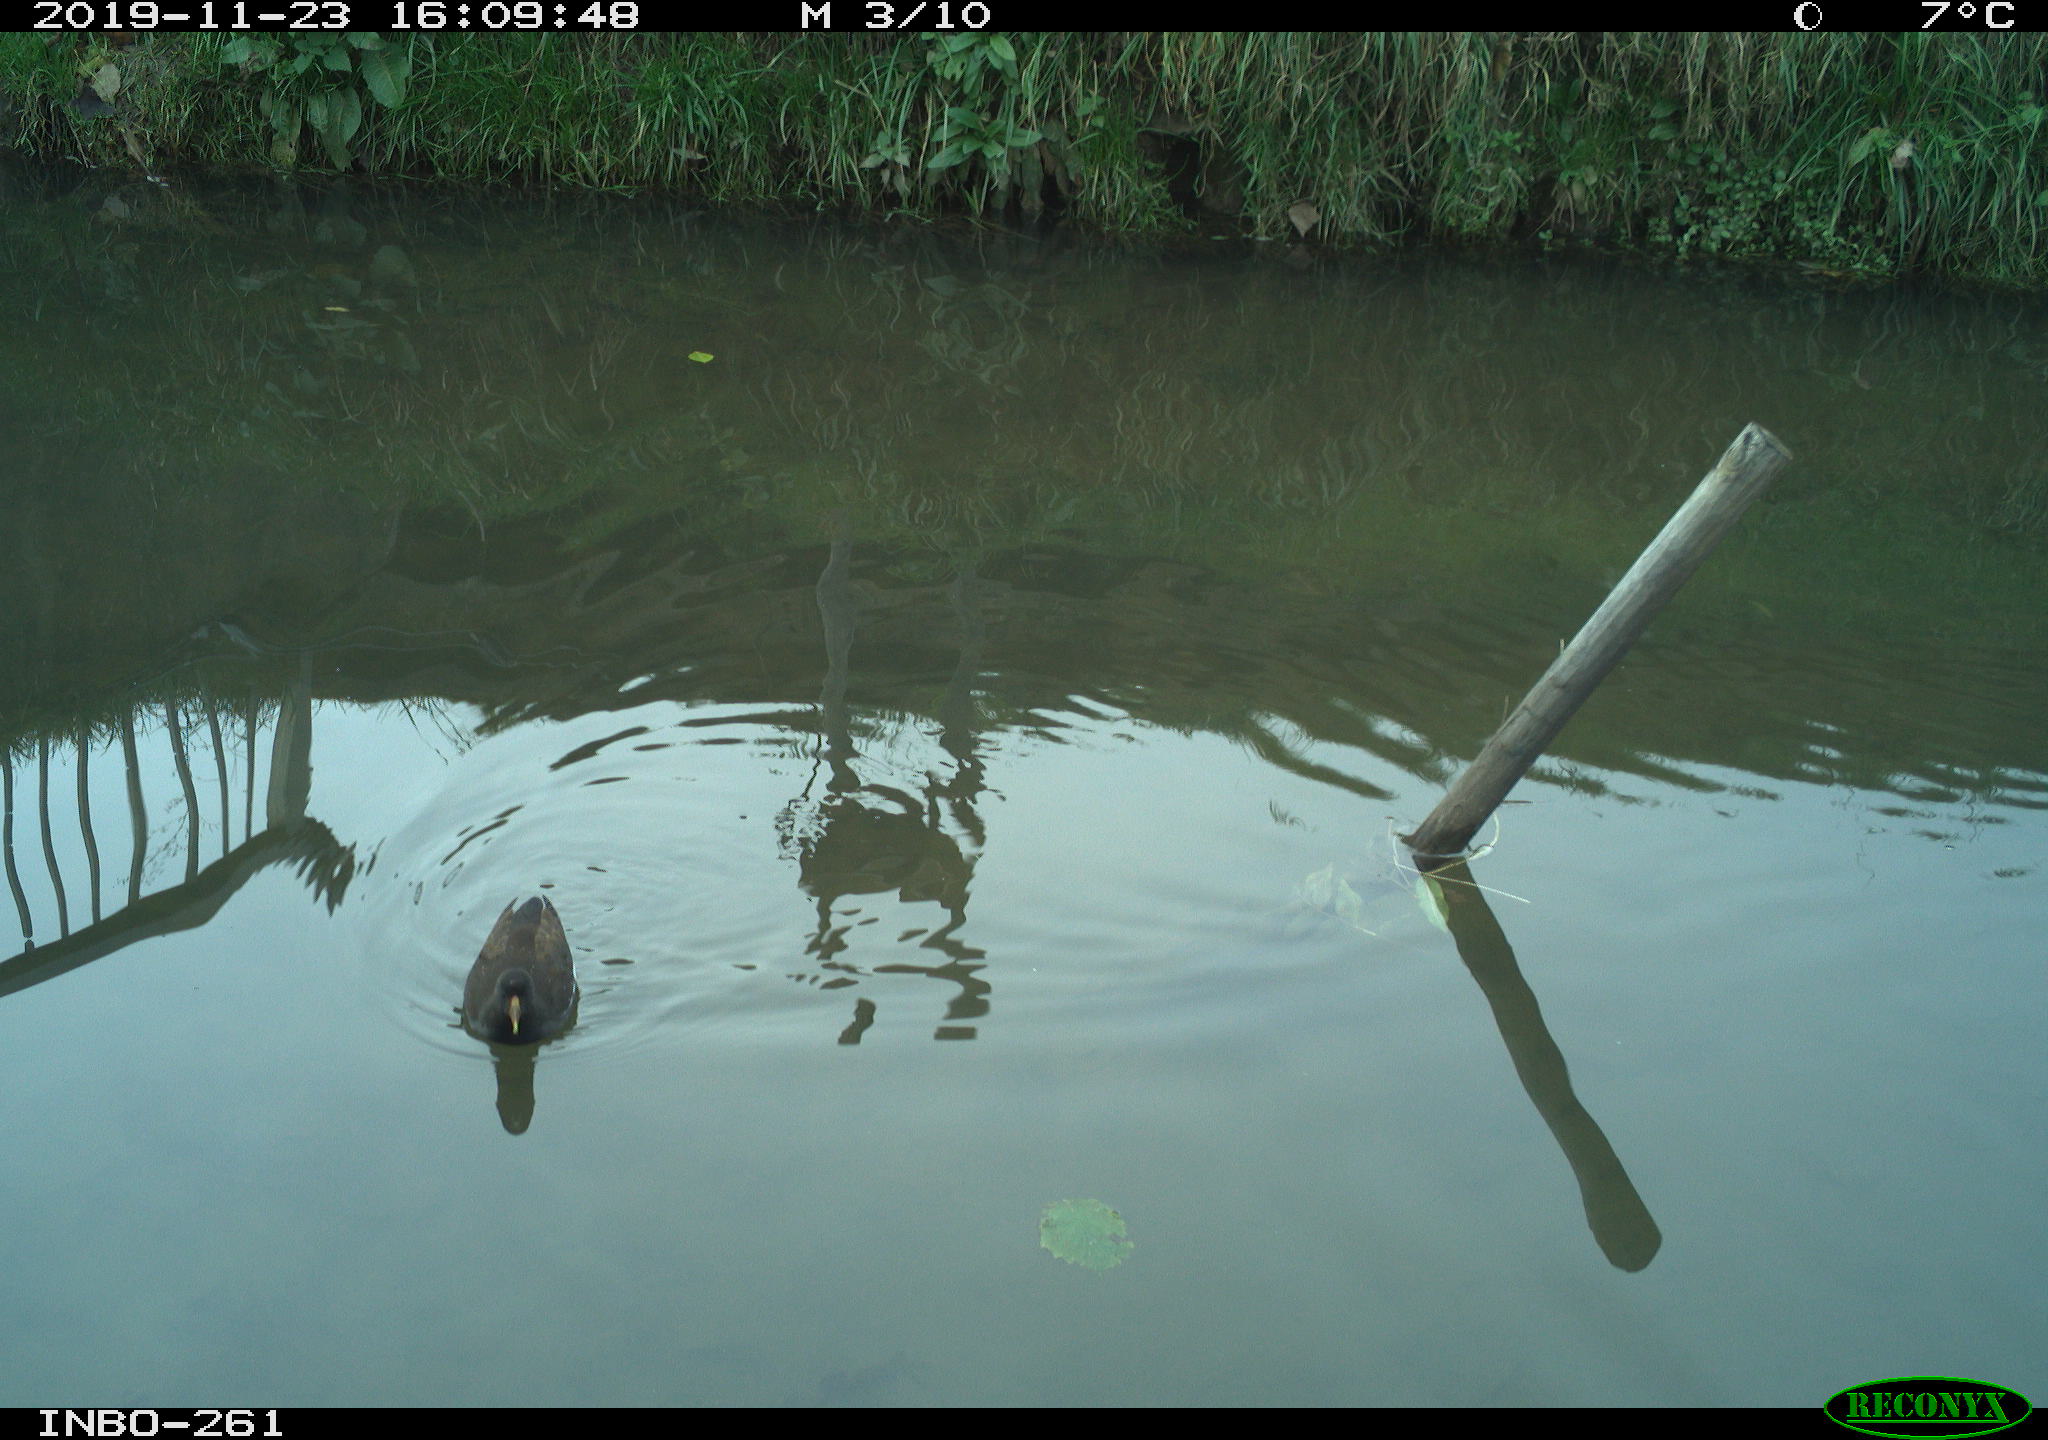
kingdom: Animalia
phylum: Chordata
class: Aves
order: Gruiformes
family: Rallidae
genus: Gallinula
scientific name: Gallinula chloropus
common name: Common moorhen
